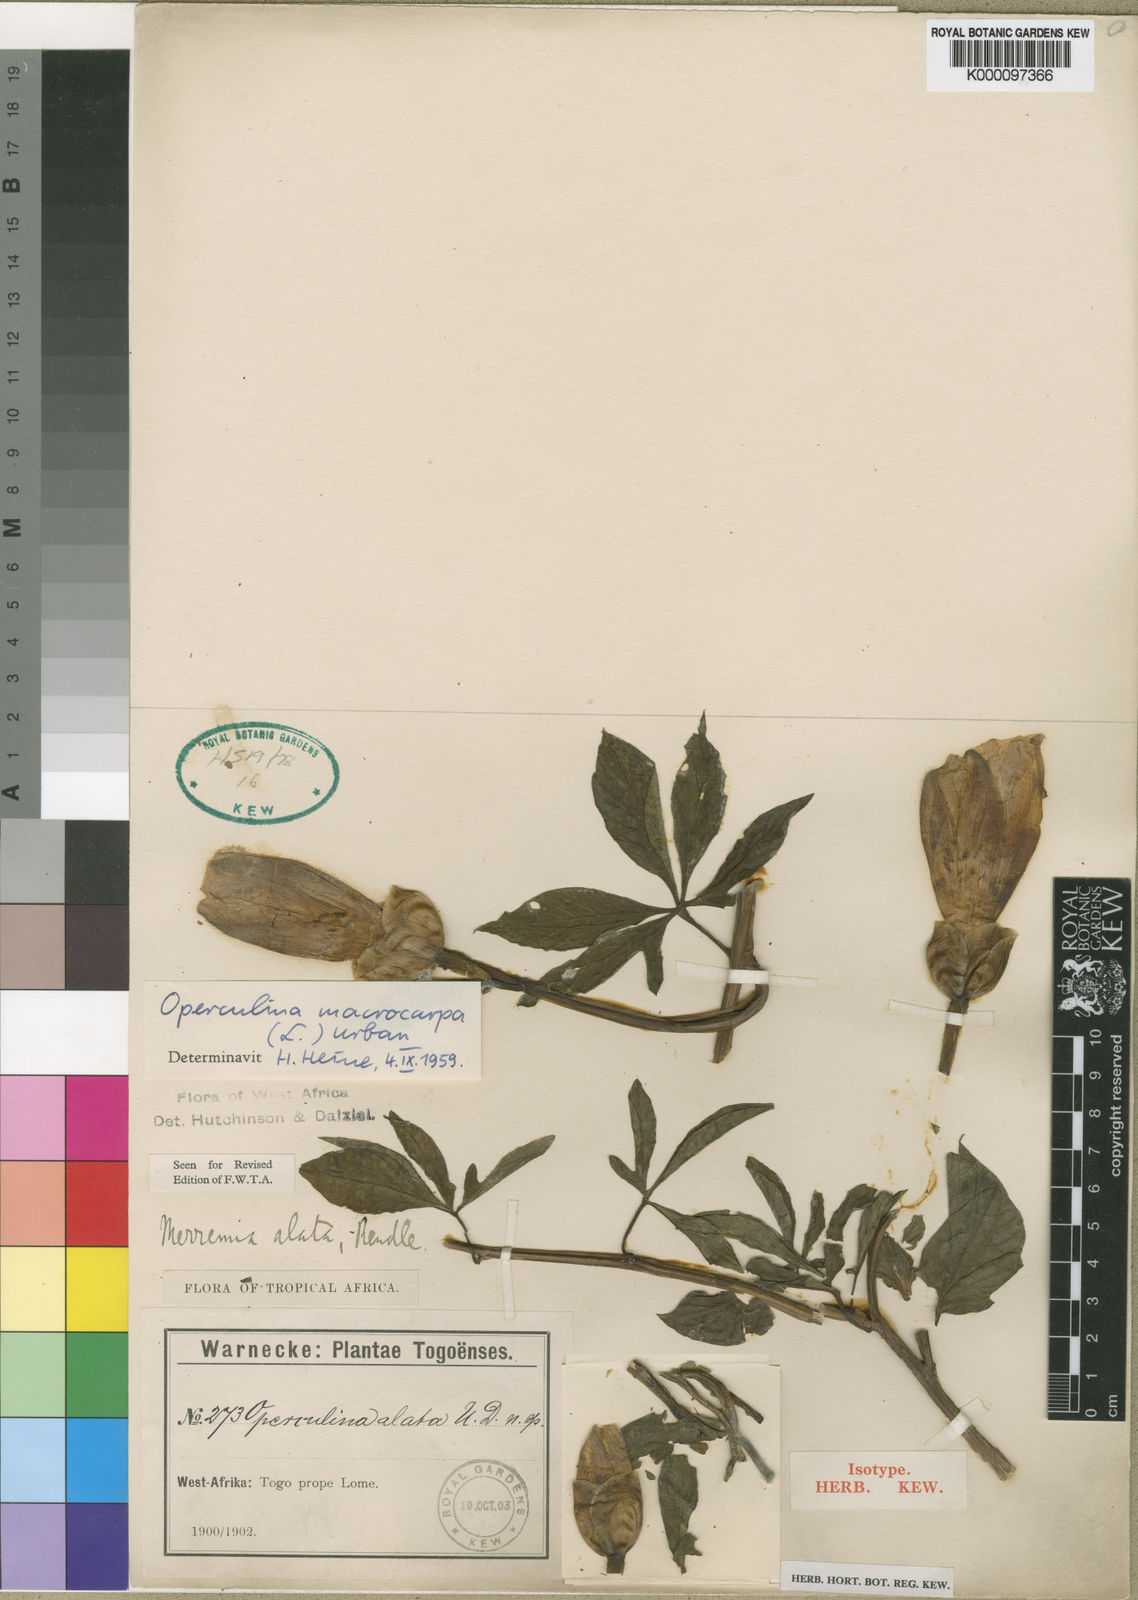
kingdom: Plantae
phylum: Tracheophyta
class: Magnoliopsida
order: Solanales
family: Convolvulaceae
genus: Operculina
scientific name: Operculina macrocarpa
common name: Brazilian jalap
